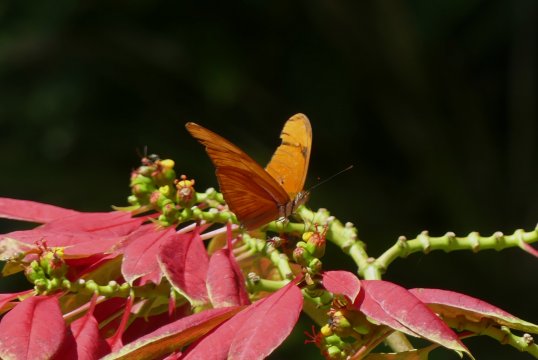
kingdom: Animalia
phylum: Arthropoda
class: Insecta
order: Lepidoptera
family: Nymphalidae
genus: Dryas
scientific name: Dryas iulia
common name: Julia
